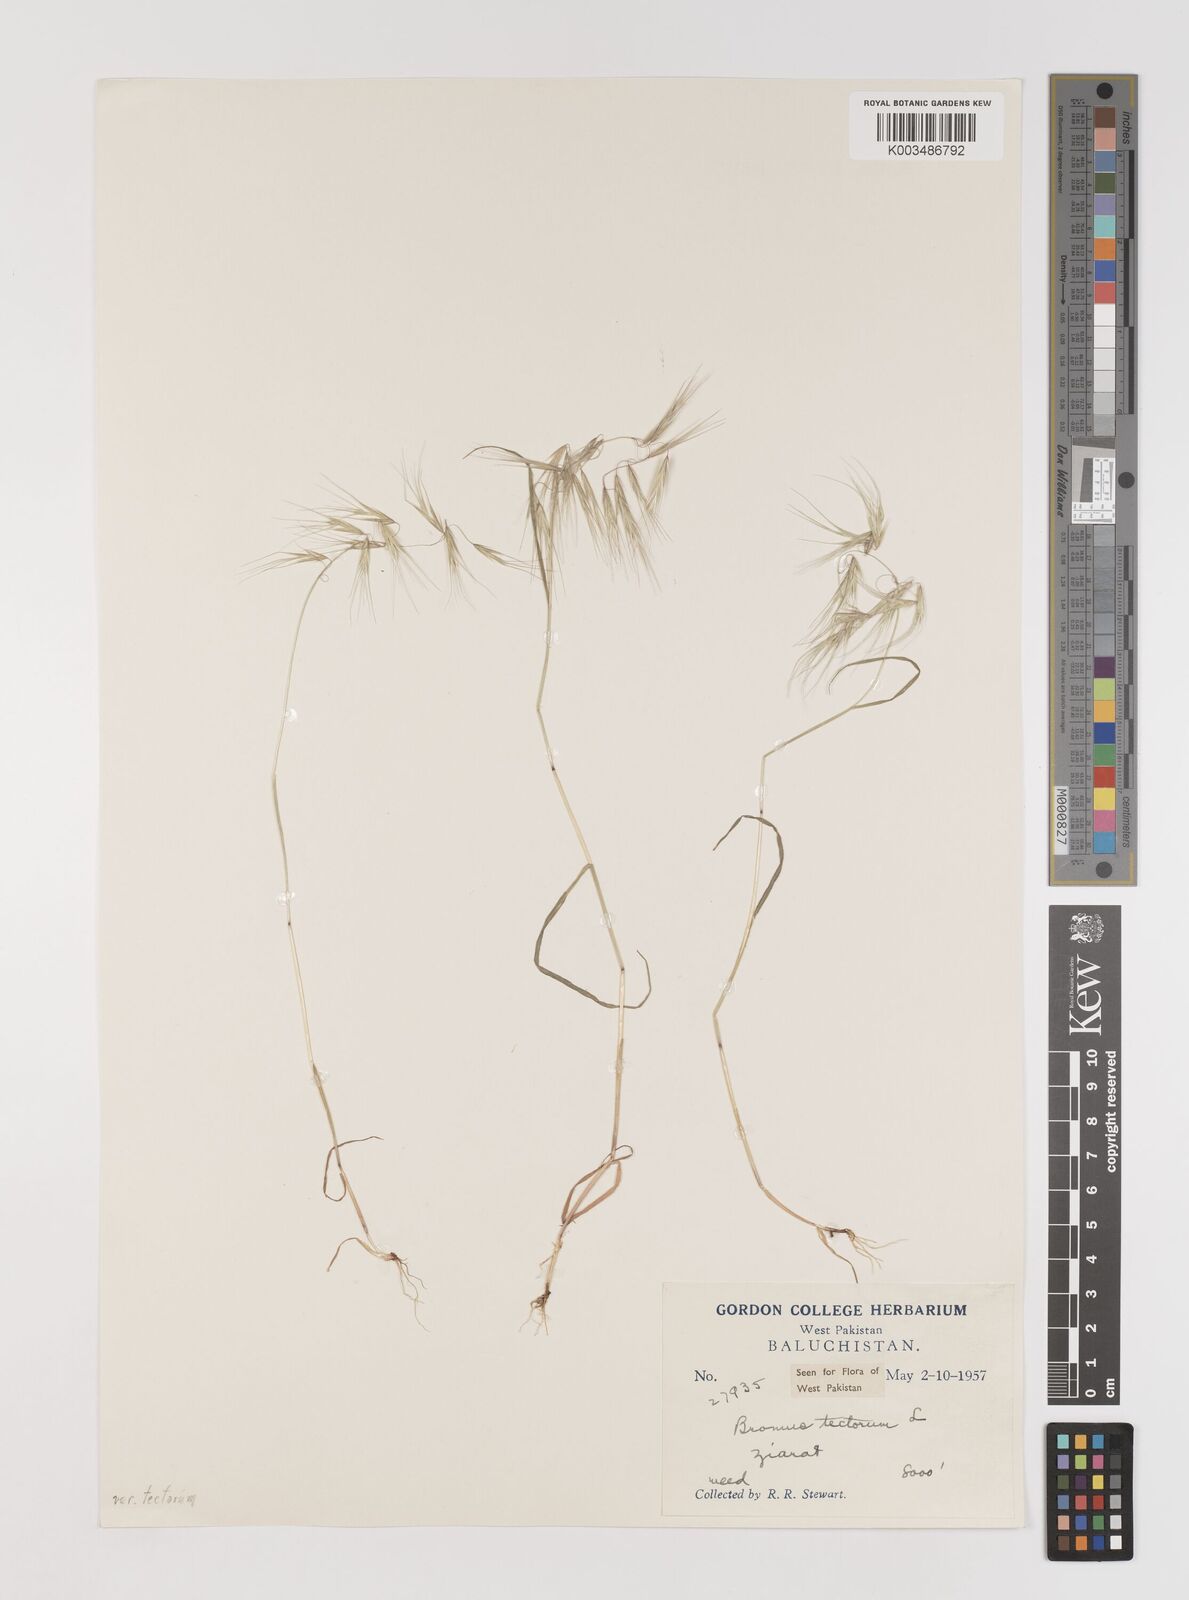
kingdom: Plantae
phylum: Tracheophyta
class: Liliopsida
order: Poales
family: Poaceae
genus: Bromus
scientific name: Bromus tectorum
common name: Cheatgrass
